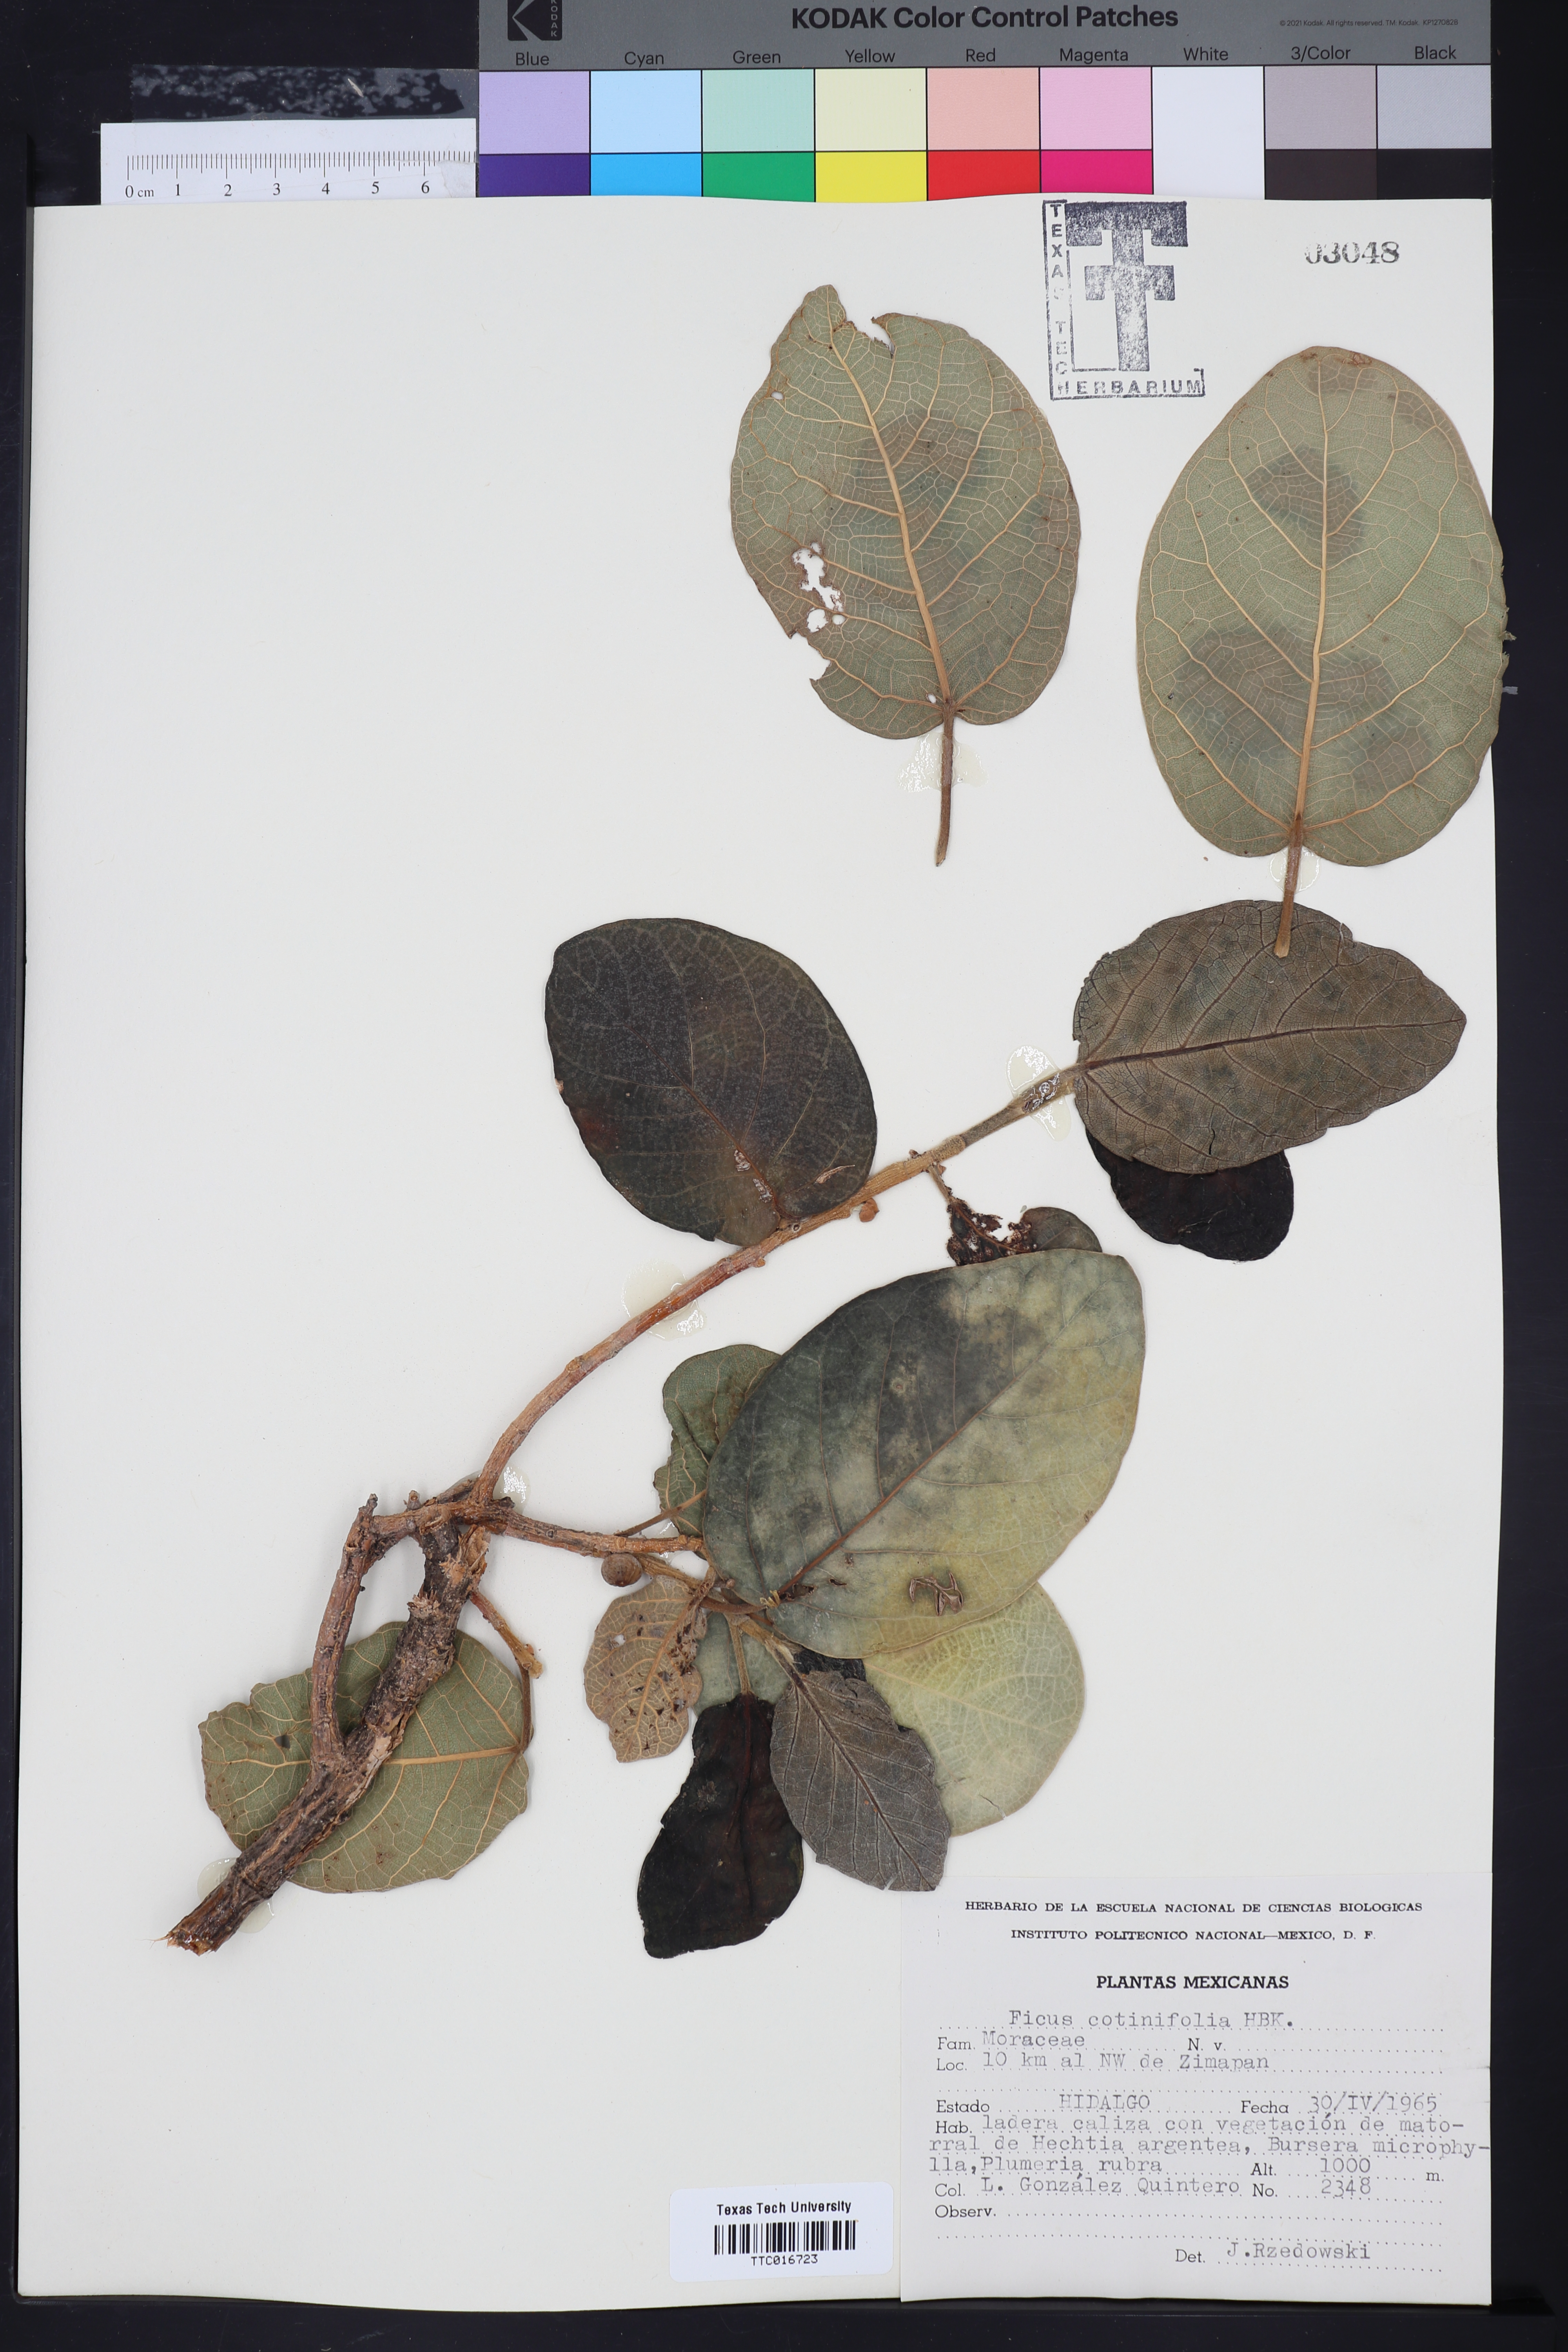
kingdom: Plantae
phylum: Tracheophyta
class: Magnoliopsida
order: Rosales
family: Moraceae
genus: Ficus
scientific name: Ficus cotinifolia
